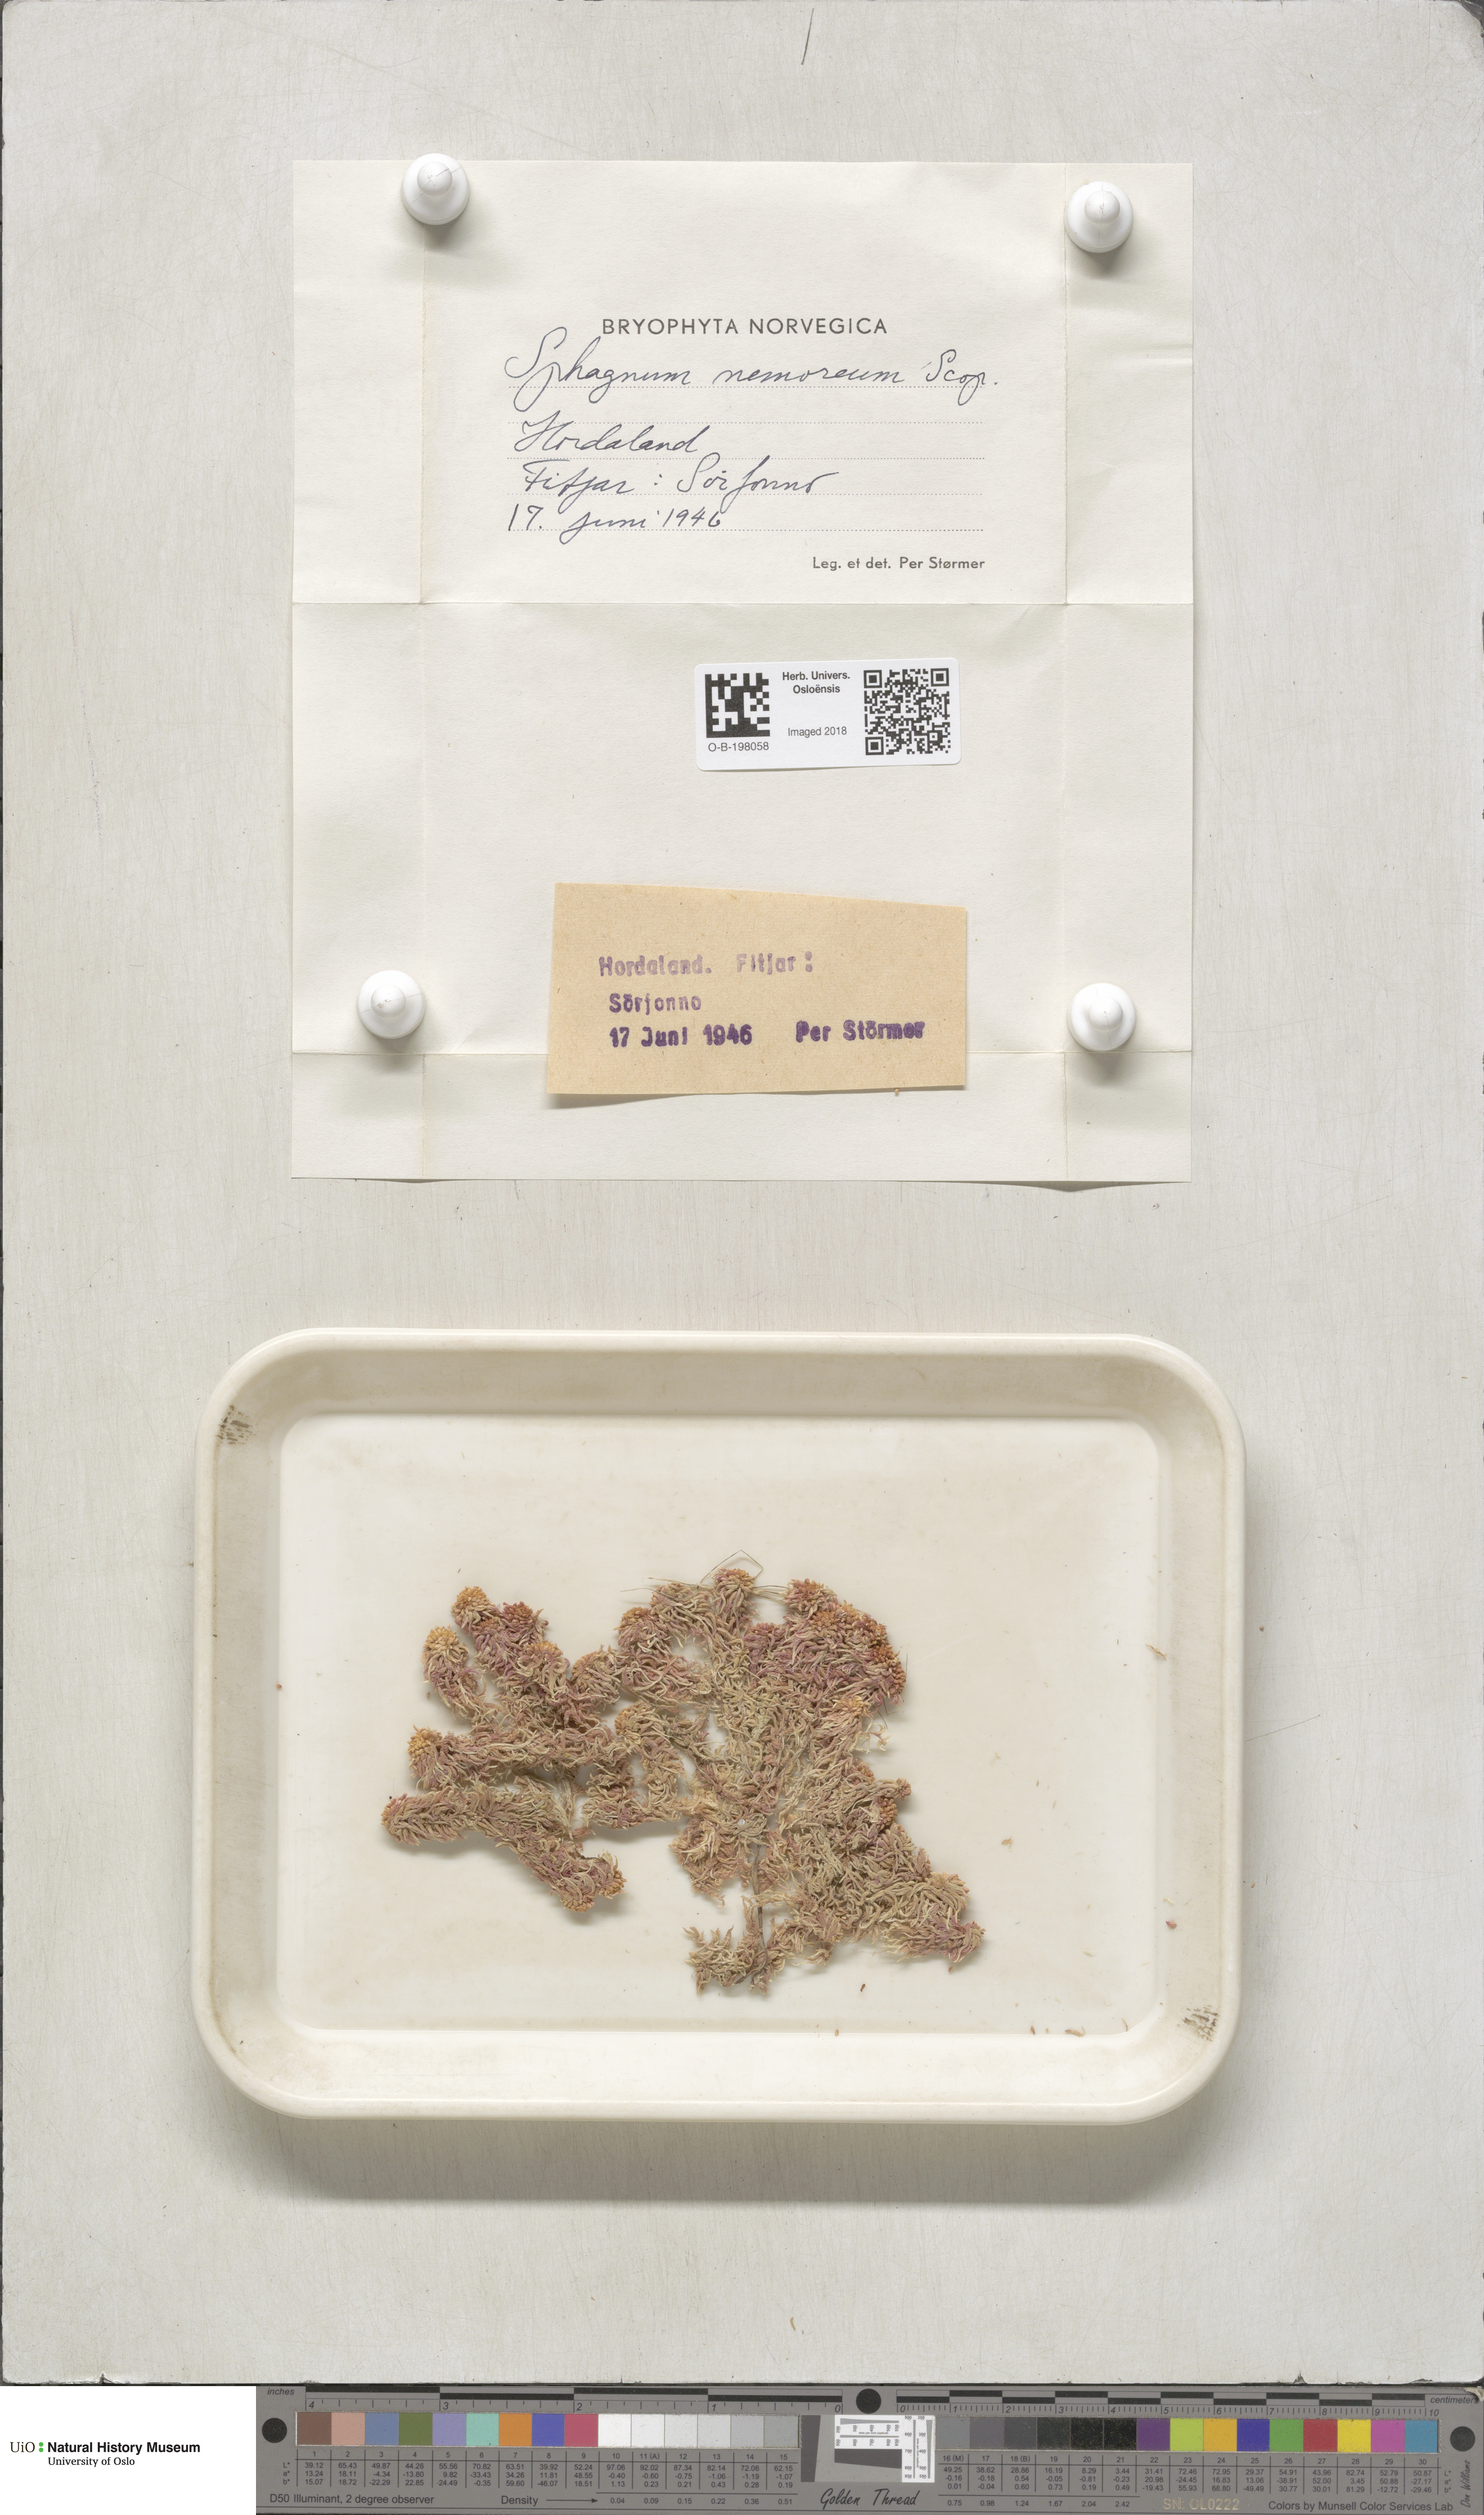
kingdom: Plantae
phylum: Bryophyta
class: Sphagnopsida
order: Sphagnales
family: Sphagnaceae
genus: Sphagnum
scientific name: Sphagnum capillifolium
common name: Small red peat moss
